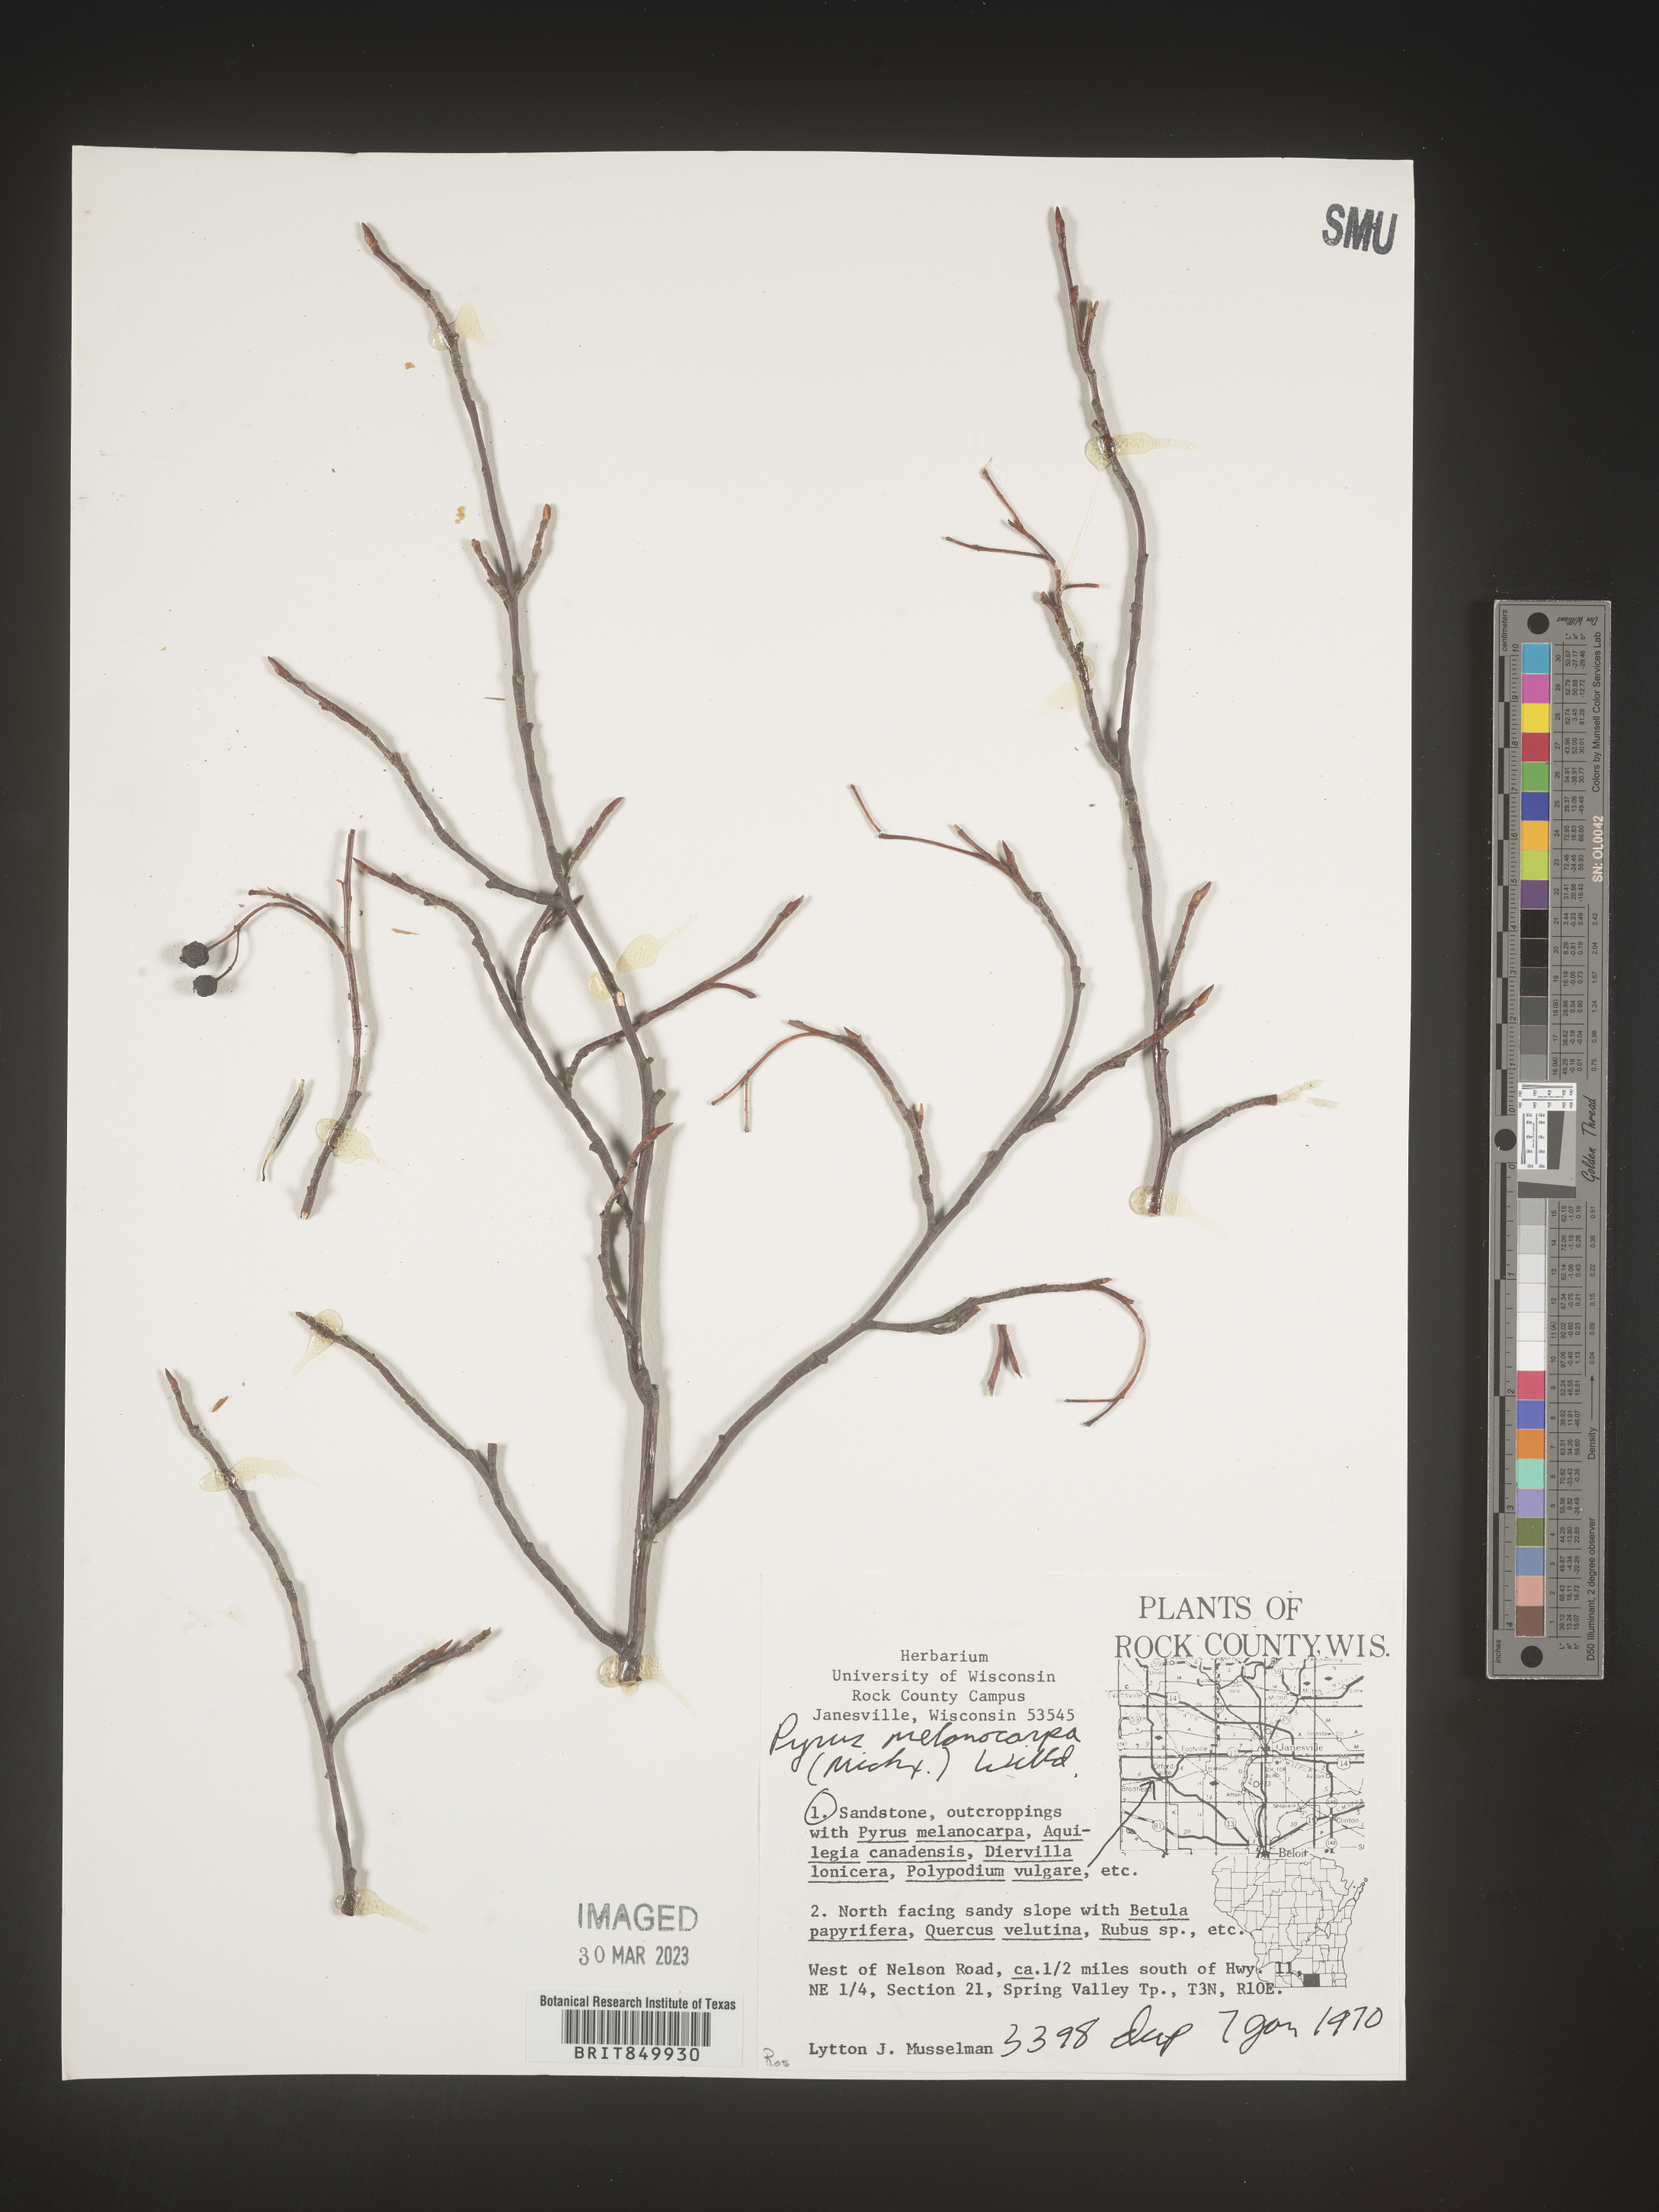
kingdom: Plantae
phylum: Tracheophyta
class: Magnoliopsida
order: Rosales
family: Rosaceae
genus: Pyrus
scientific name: Pyrus
